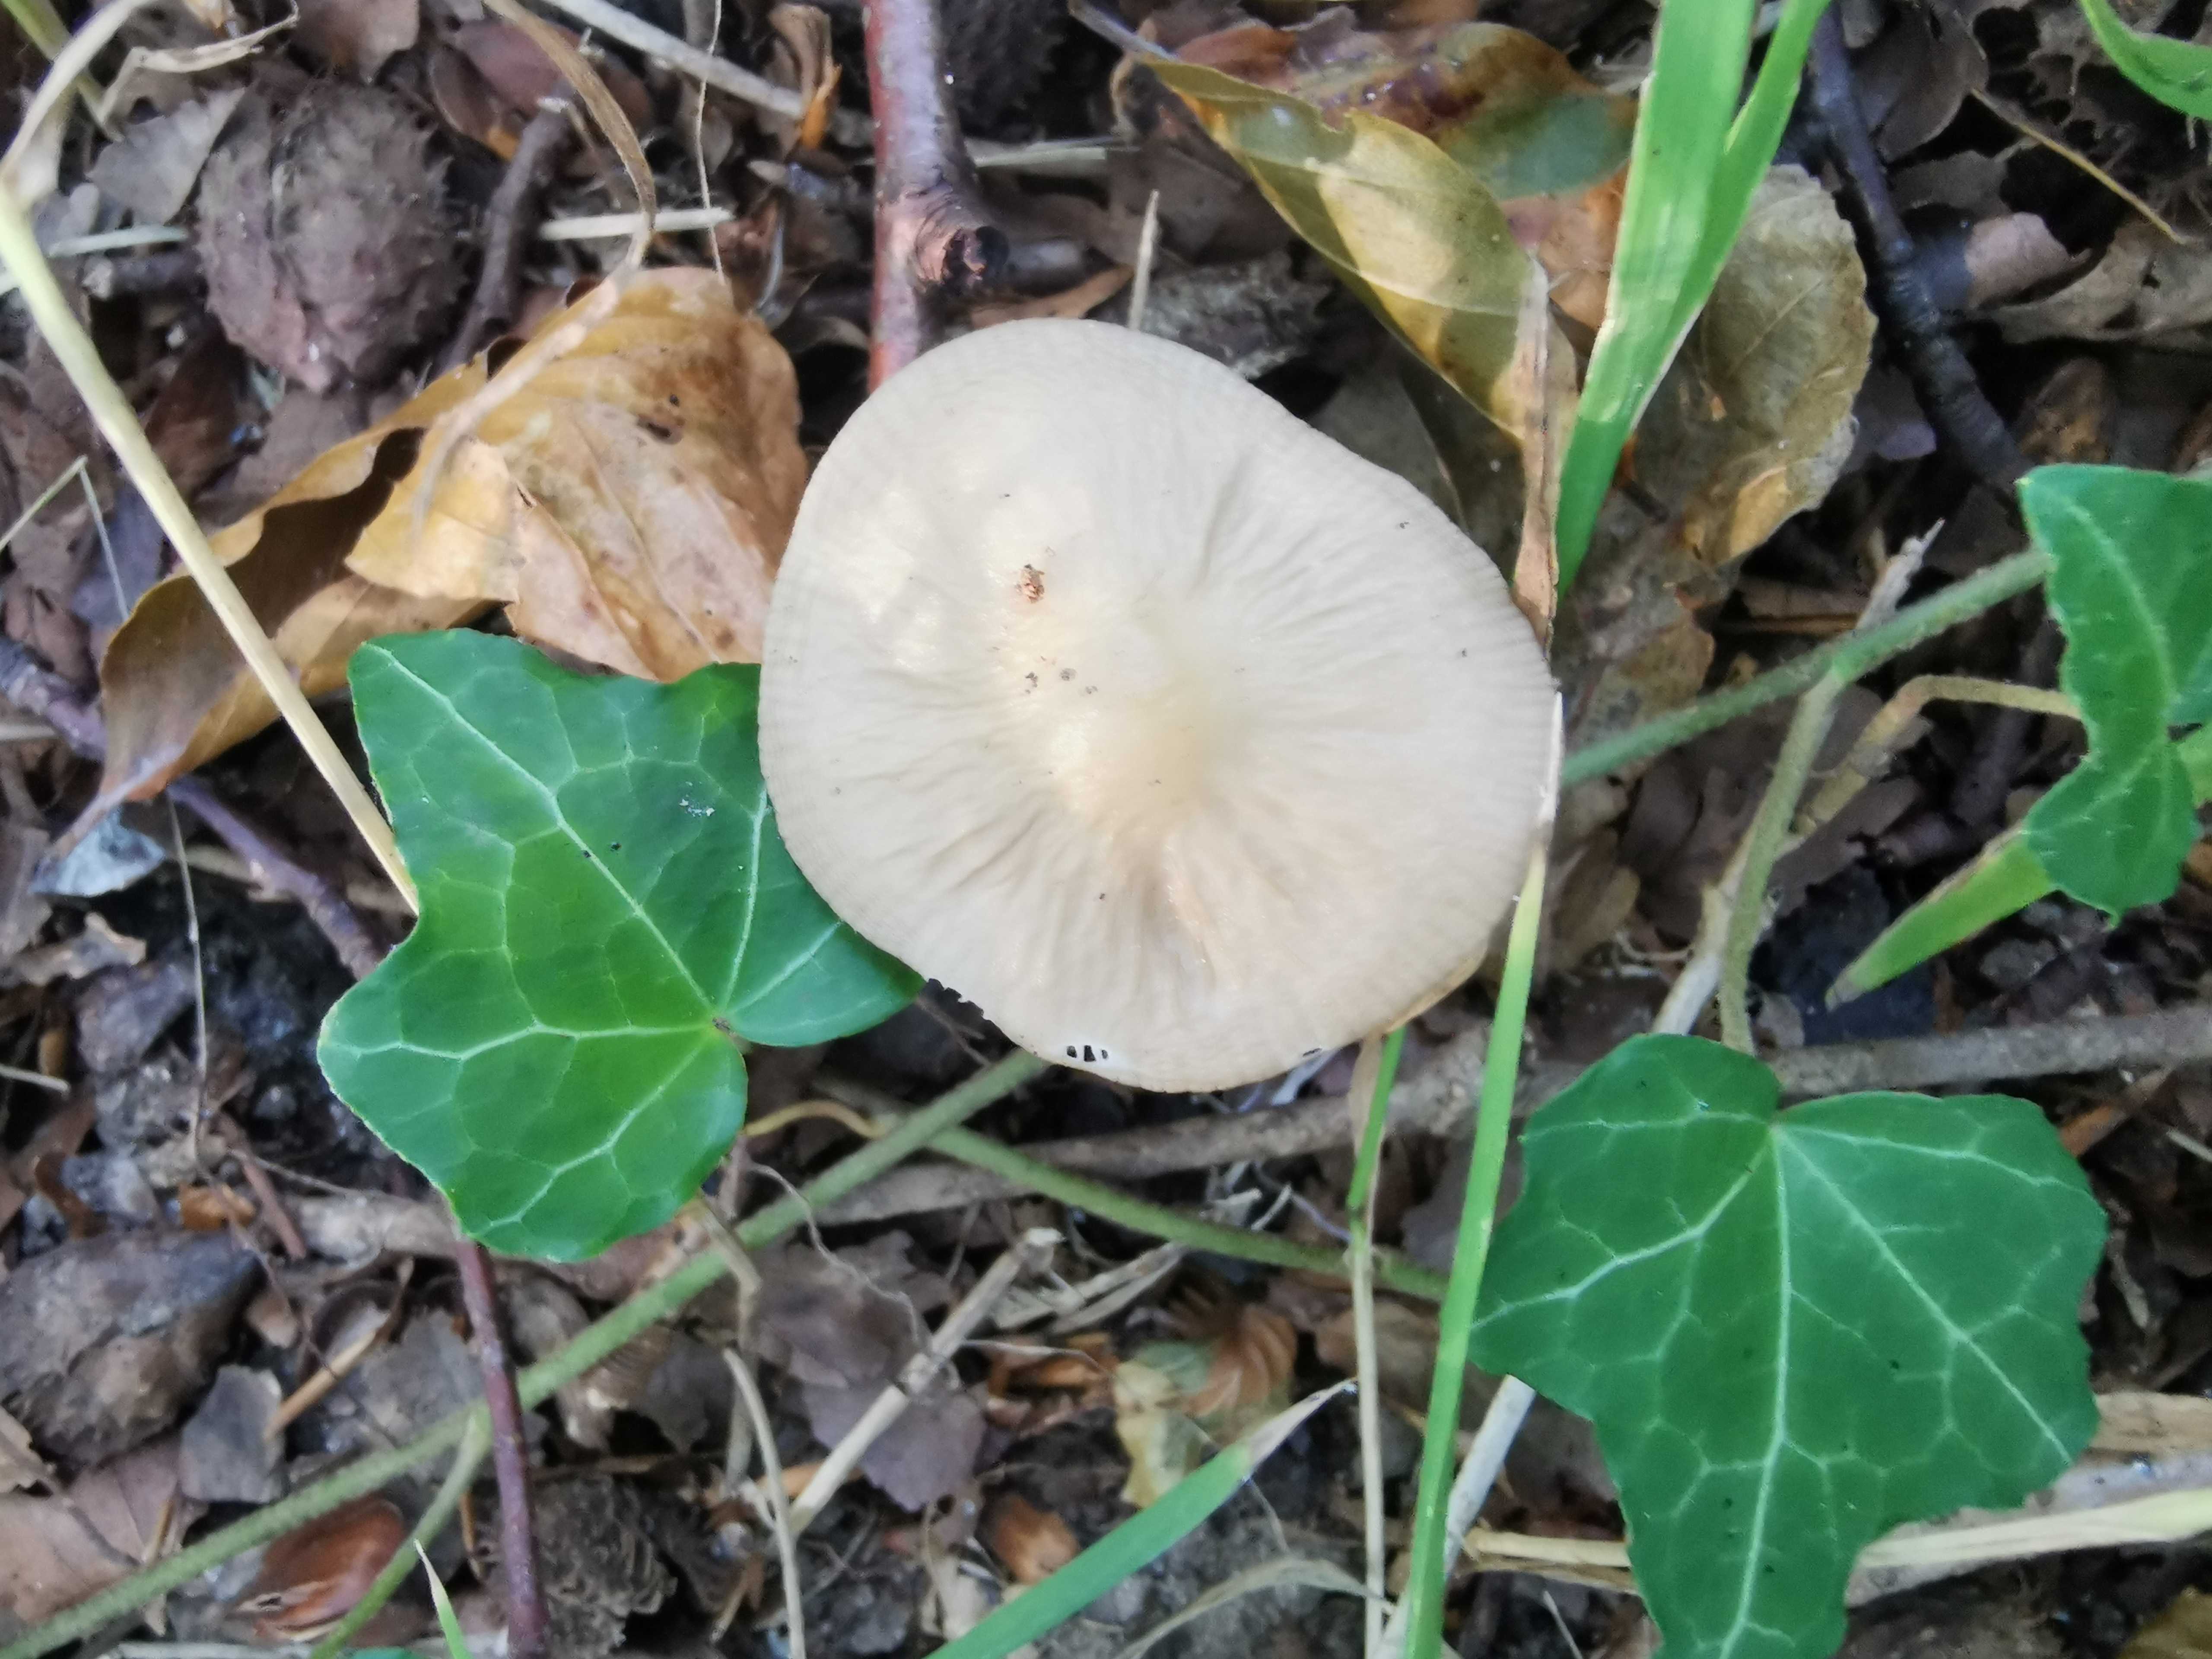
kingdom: Fungi
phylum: Basidiomycota
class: Agaricomycetes
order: Agaricales
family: Physalacriaceae
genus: Hymenopellis
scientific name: Hymenopellis radicata
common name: almindelig pælerodshat
